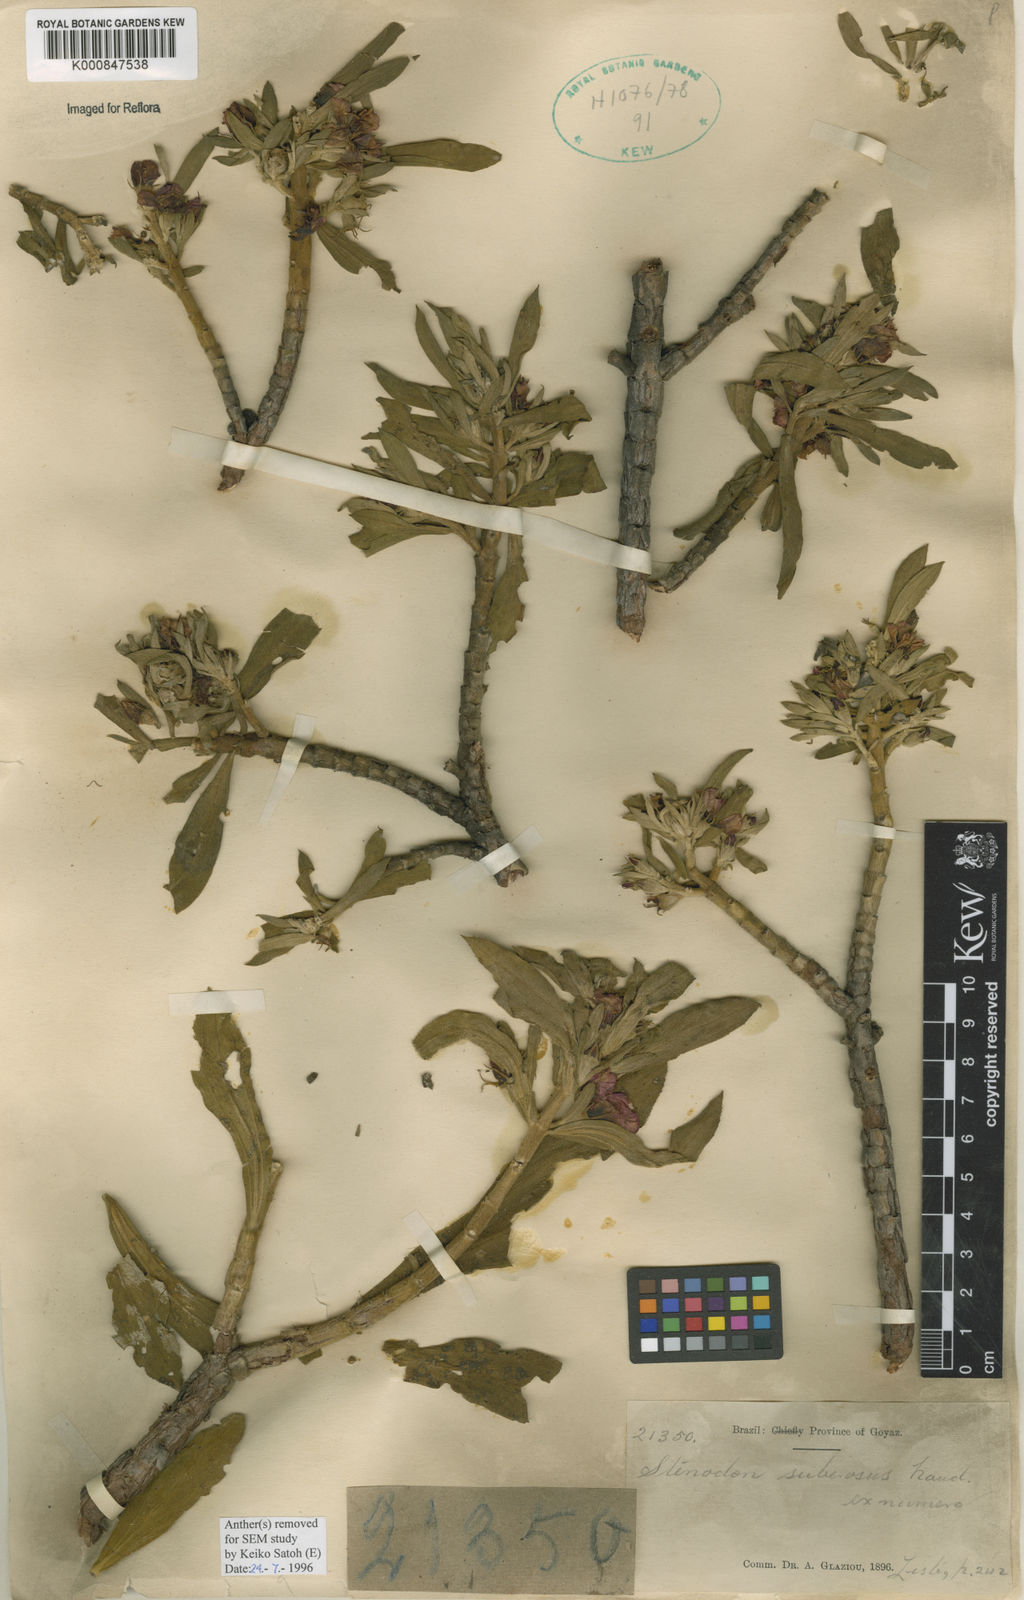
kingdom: Plantae
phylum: Tracheophyta
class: Magnoliopsida
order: Myrtales
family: Melastomataceae
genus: Microlicia
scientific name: Microlicia suberosa
